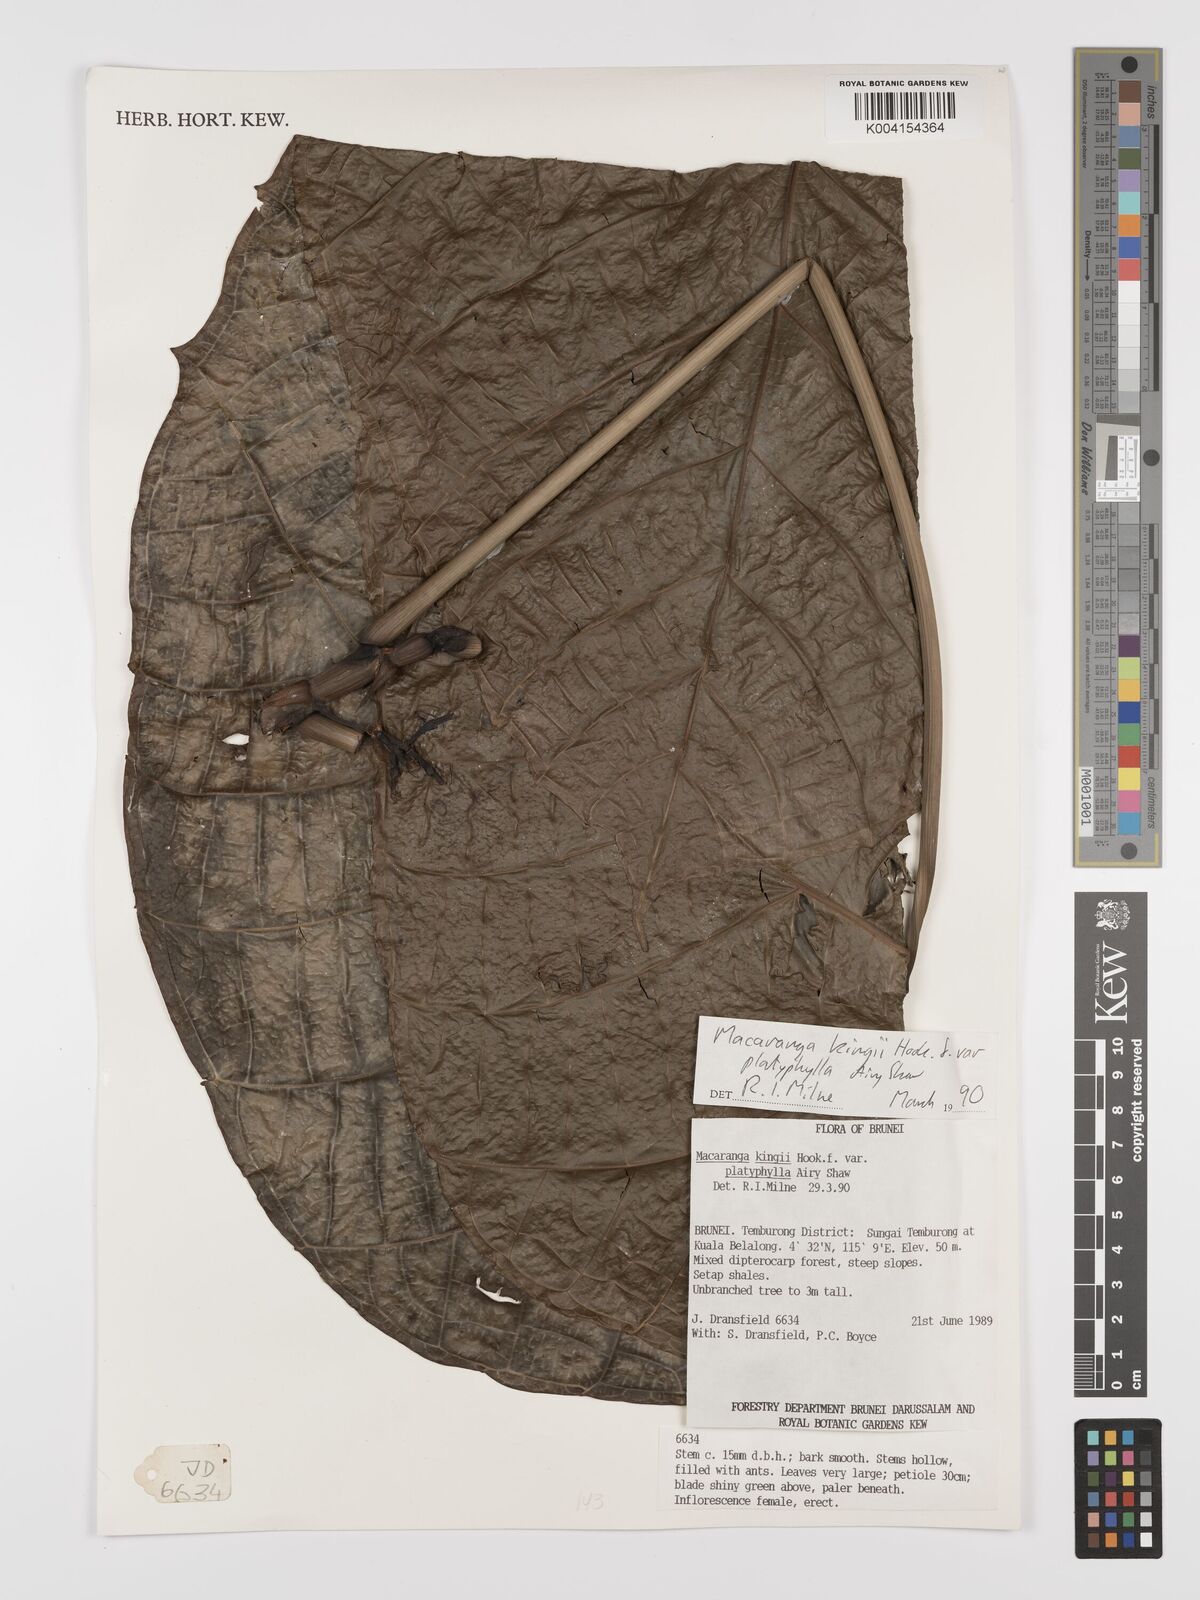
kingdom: Plantae
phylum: Tracheophyta
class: Magnoliopsida
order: Malpighiales
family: Euphorbiaceae
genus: Macaranga
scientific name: Macaranga umbrosa
